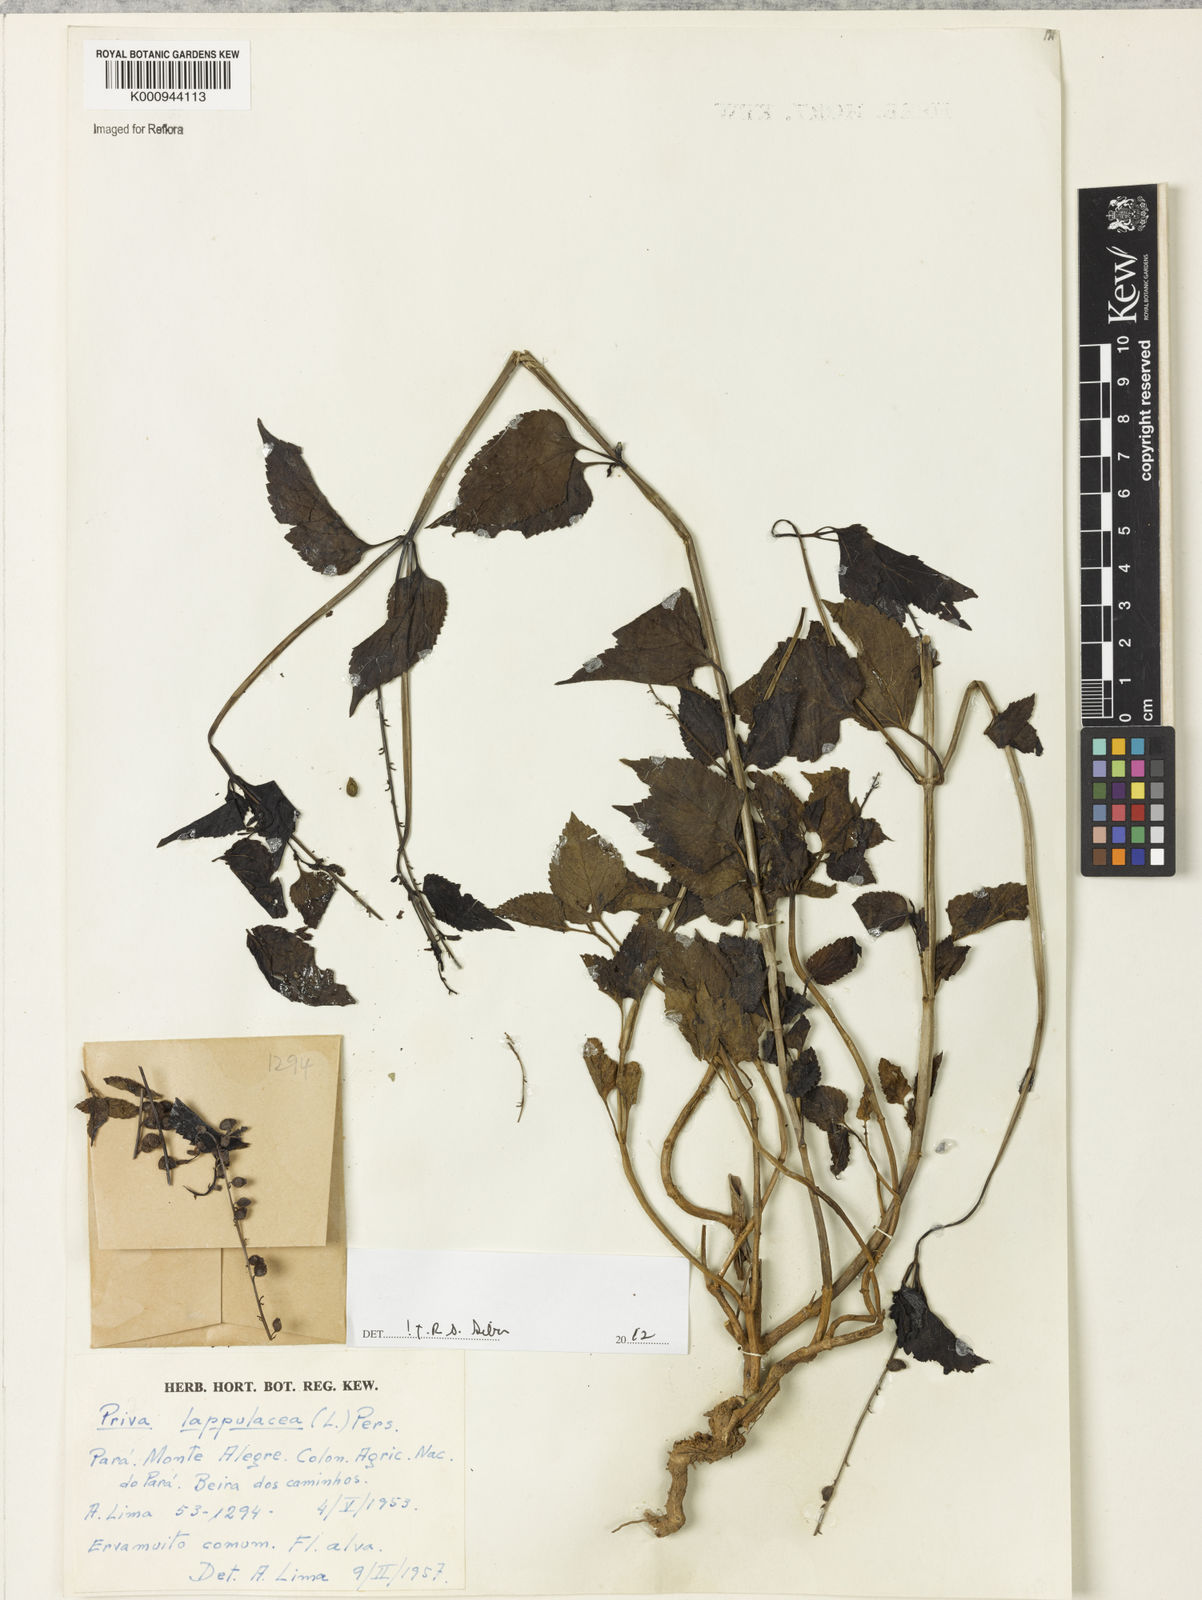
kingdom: Plantae
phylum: Tracheophyta
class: Magnoliopsida
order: Lamiales
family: Verbenaceae
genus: Priva
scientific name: Priva lappulacea
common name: Fasten-'pon-coat
